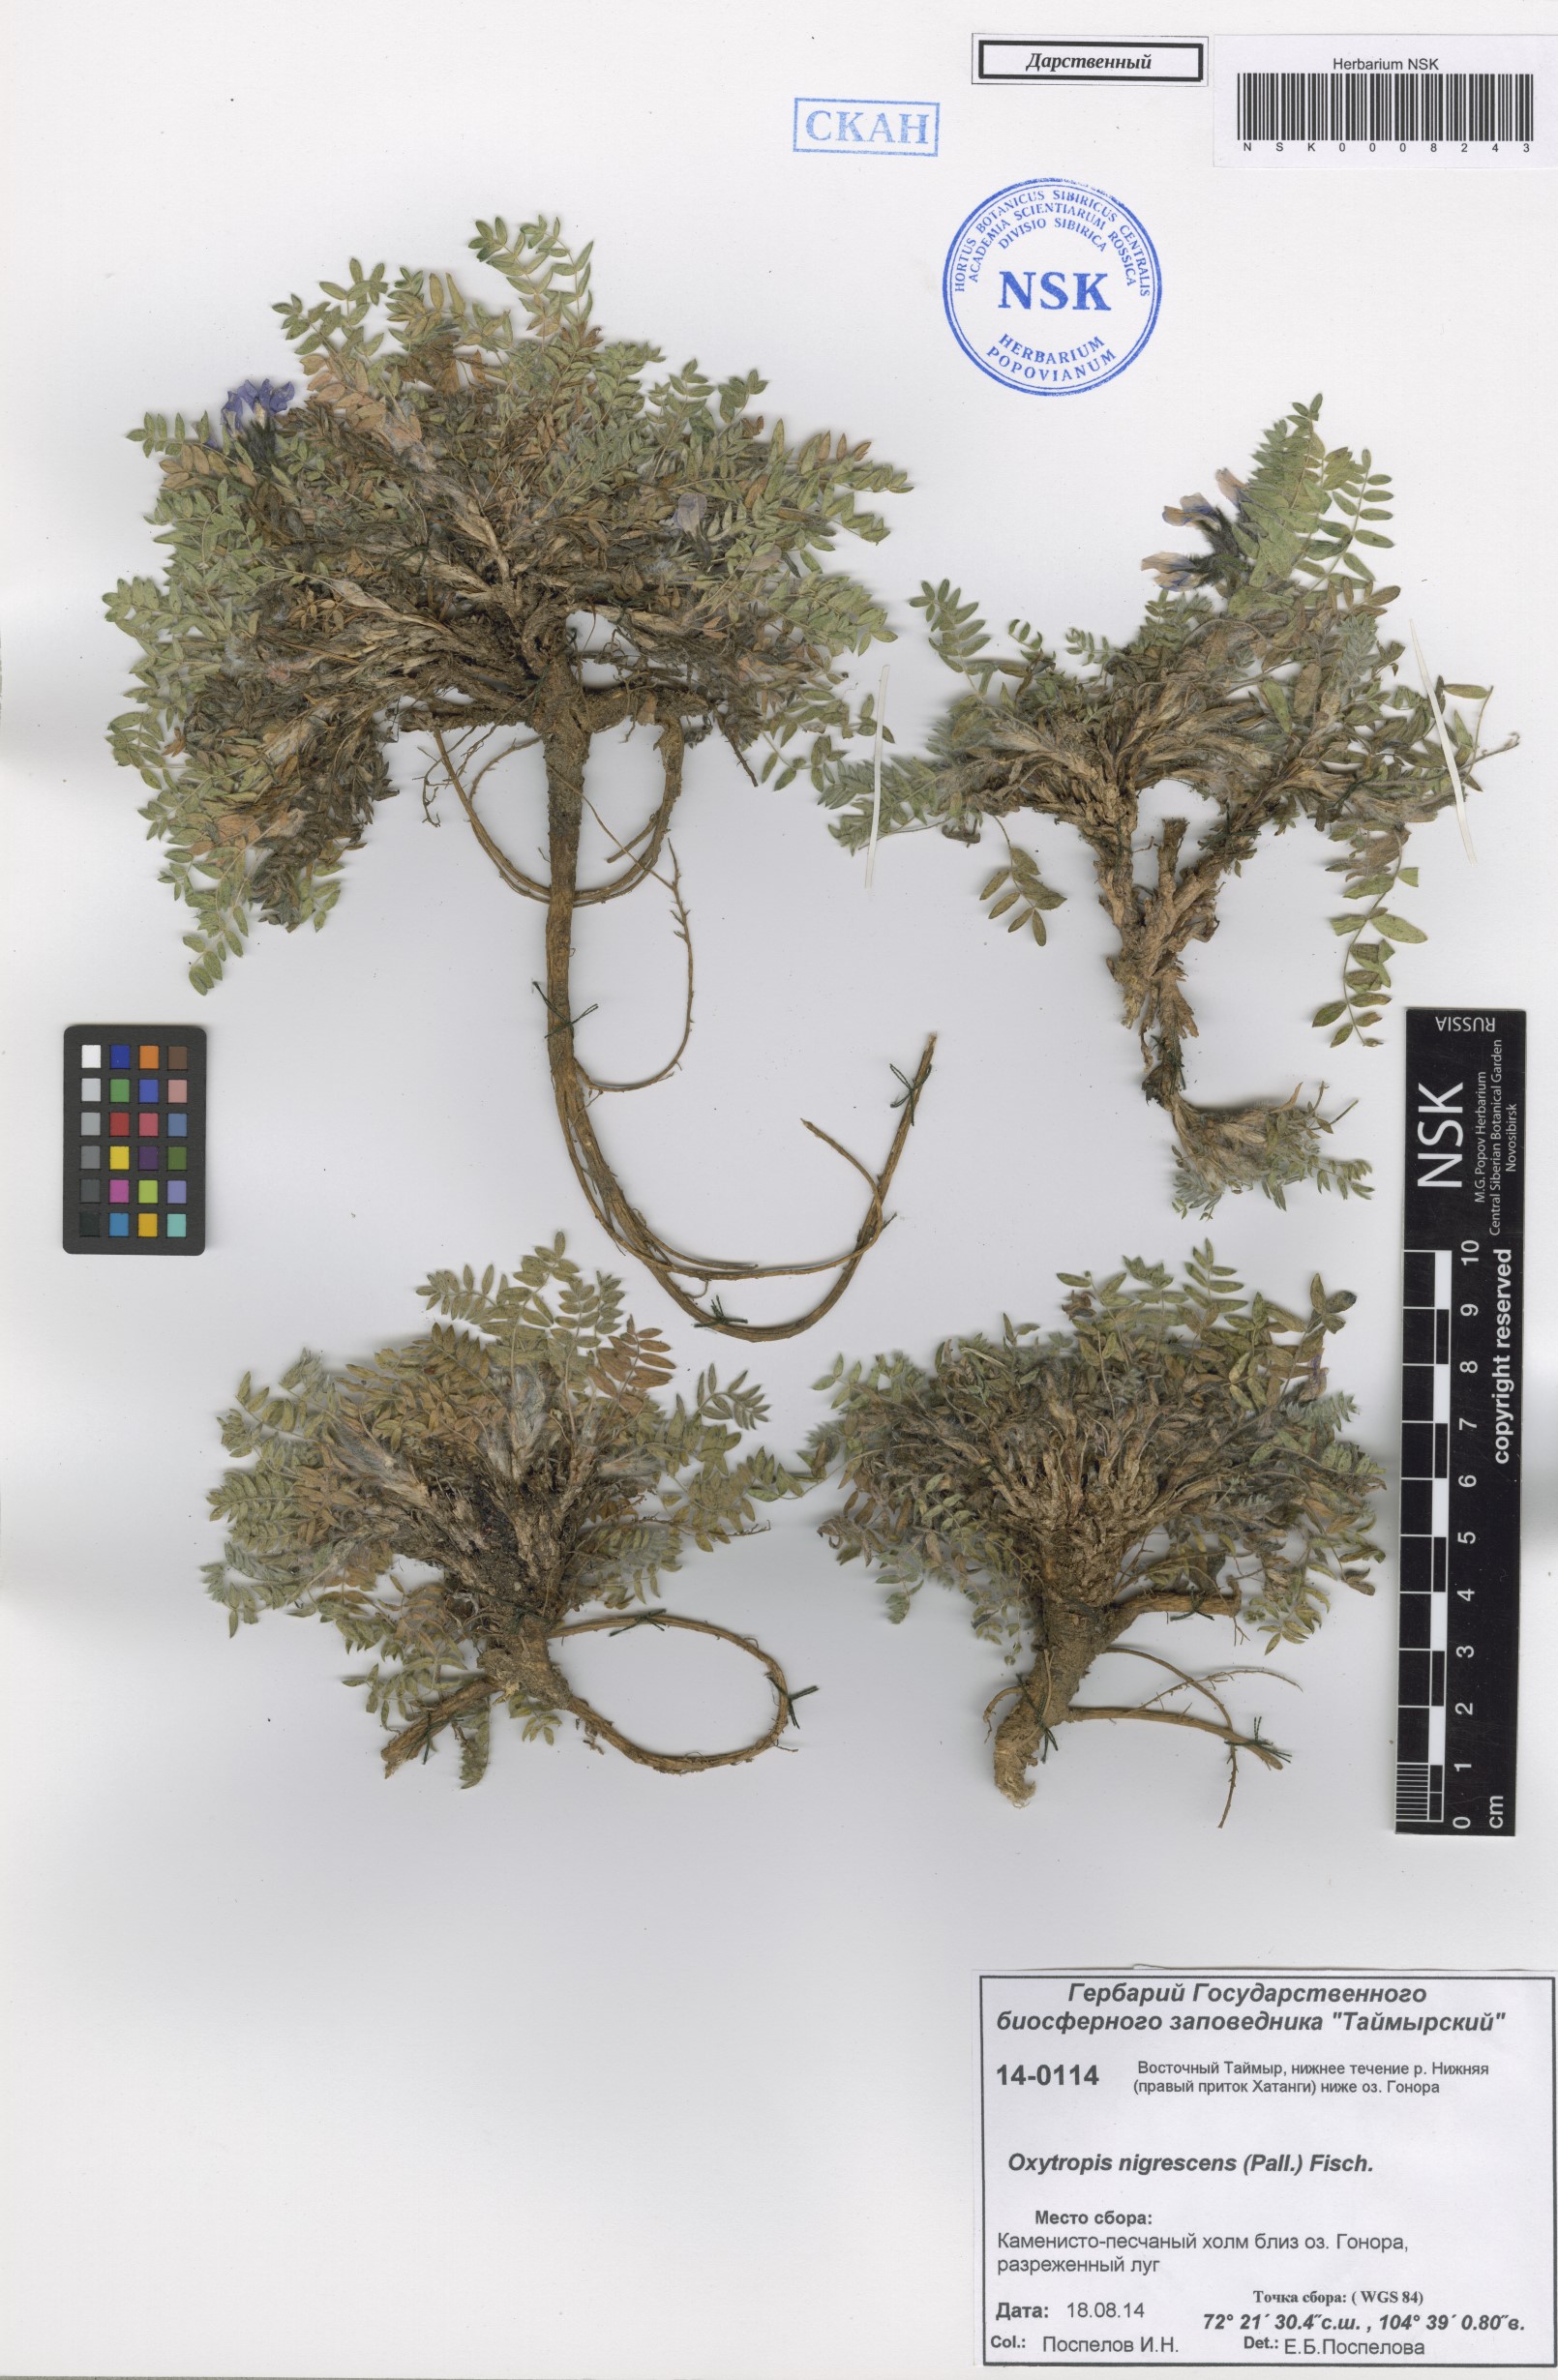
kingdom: Plantae
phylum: Tracheophyta
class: Magnoliopsida
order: Fabales
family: Fabaceae
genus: Oxytropis
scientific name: Oxytropis nigrescens
